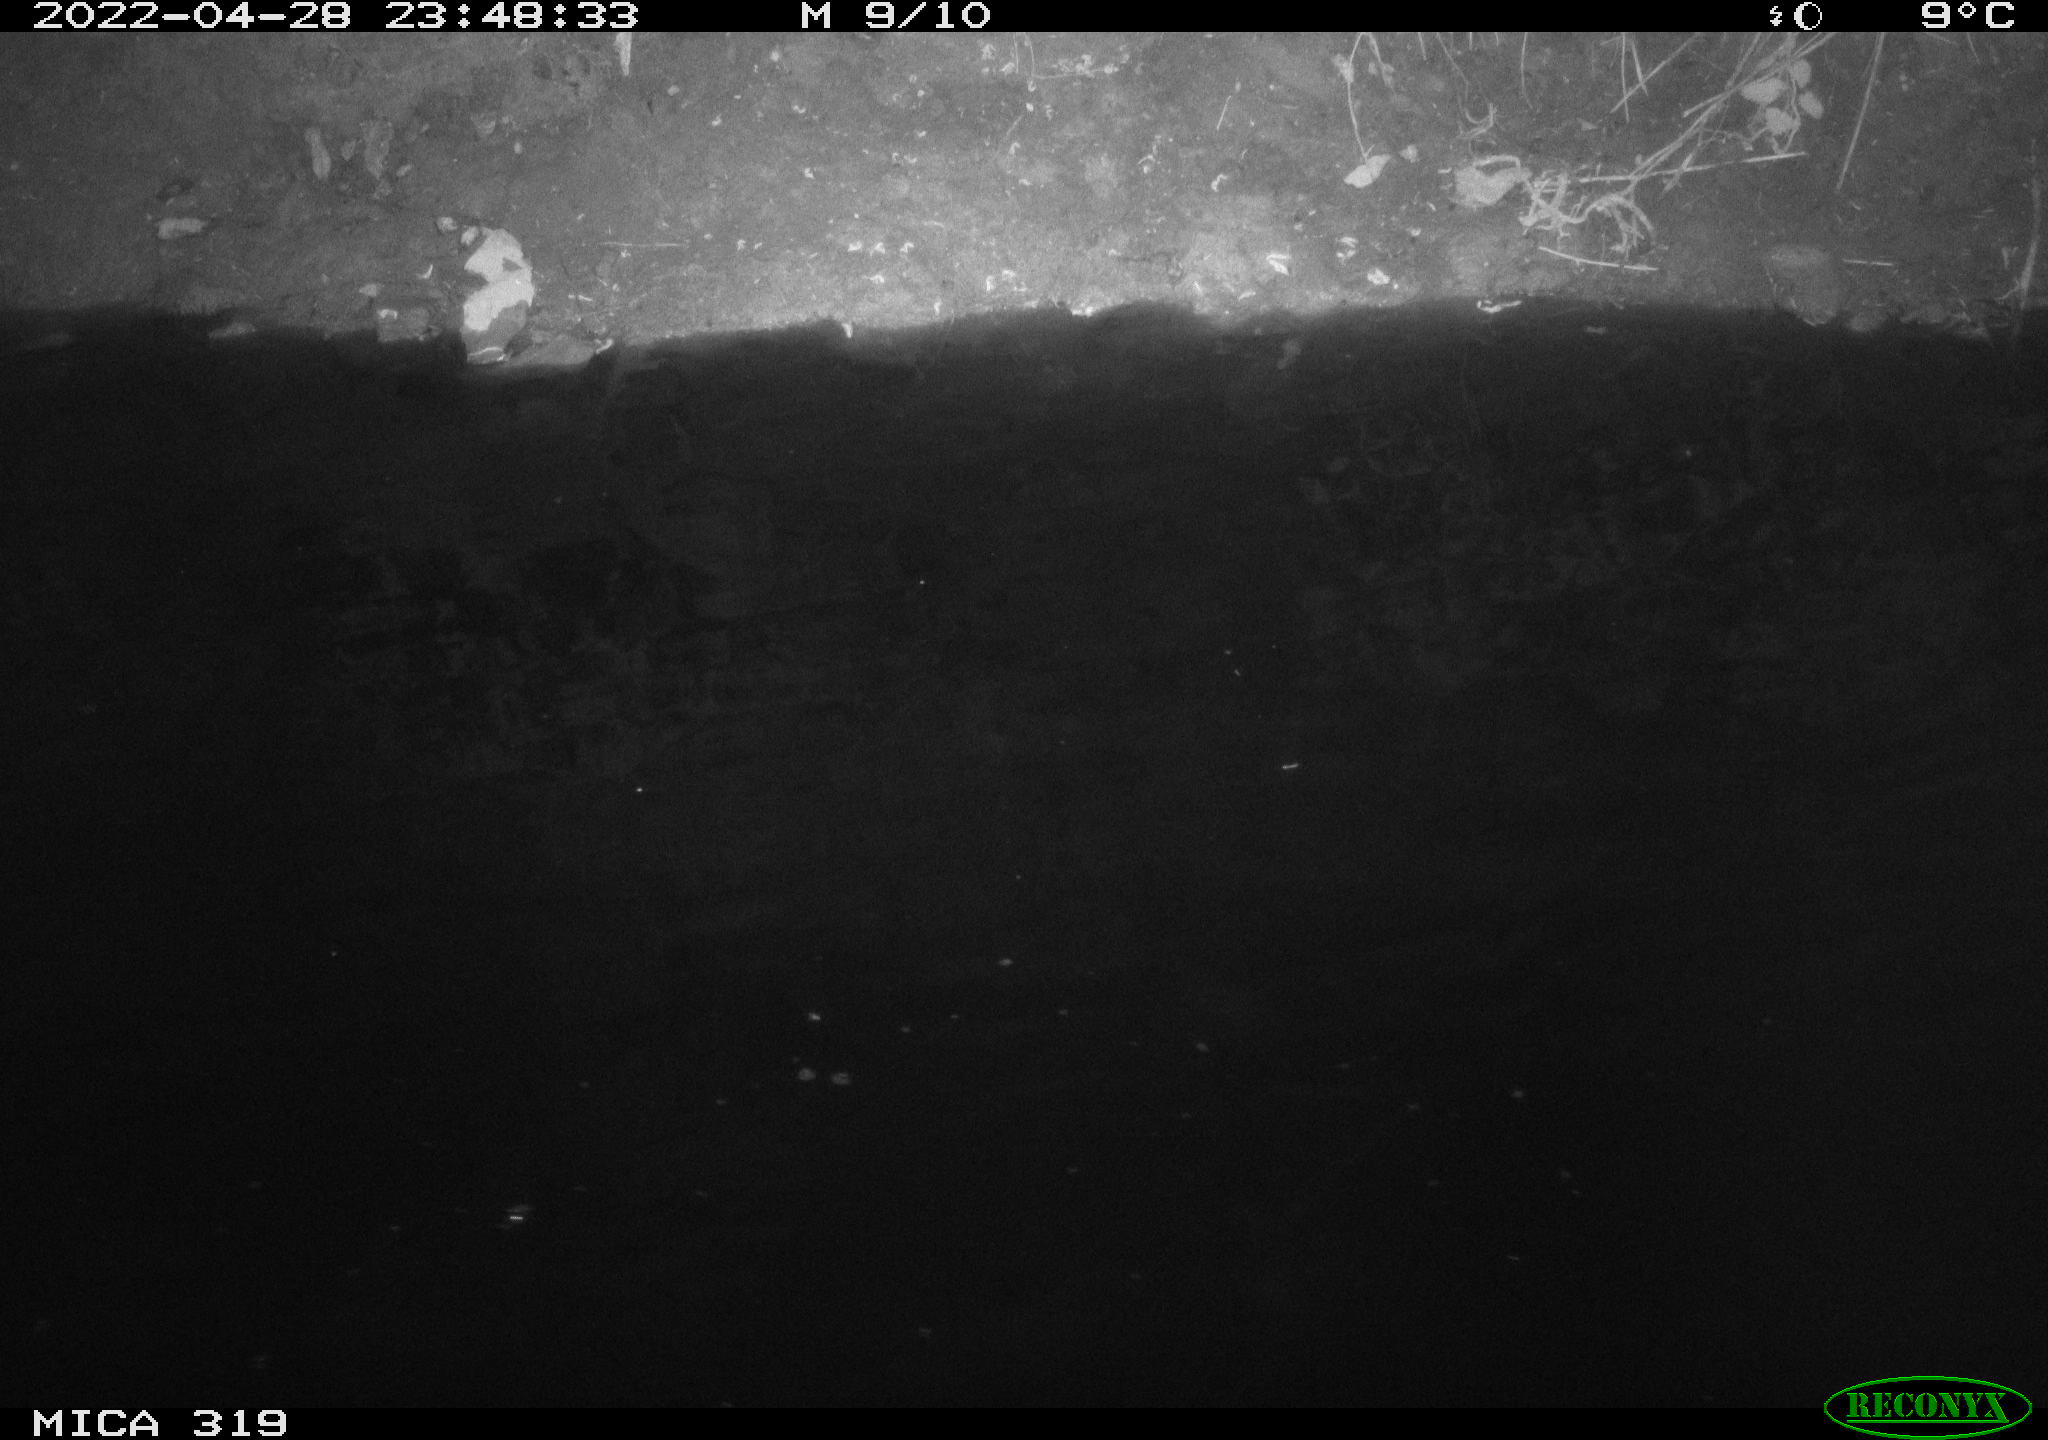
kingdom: Animalia
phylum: Chordata
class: Aves
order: Anseriformes
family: Anatidae
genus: Anas
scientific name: Anas platyrhynchos
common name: Mallard
